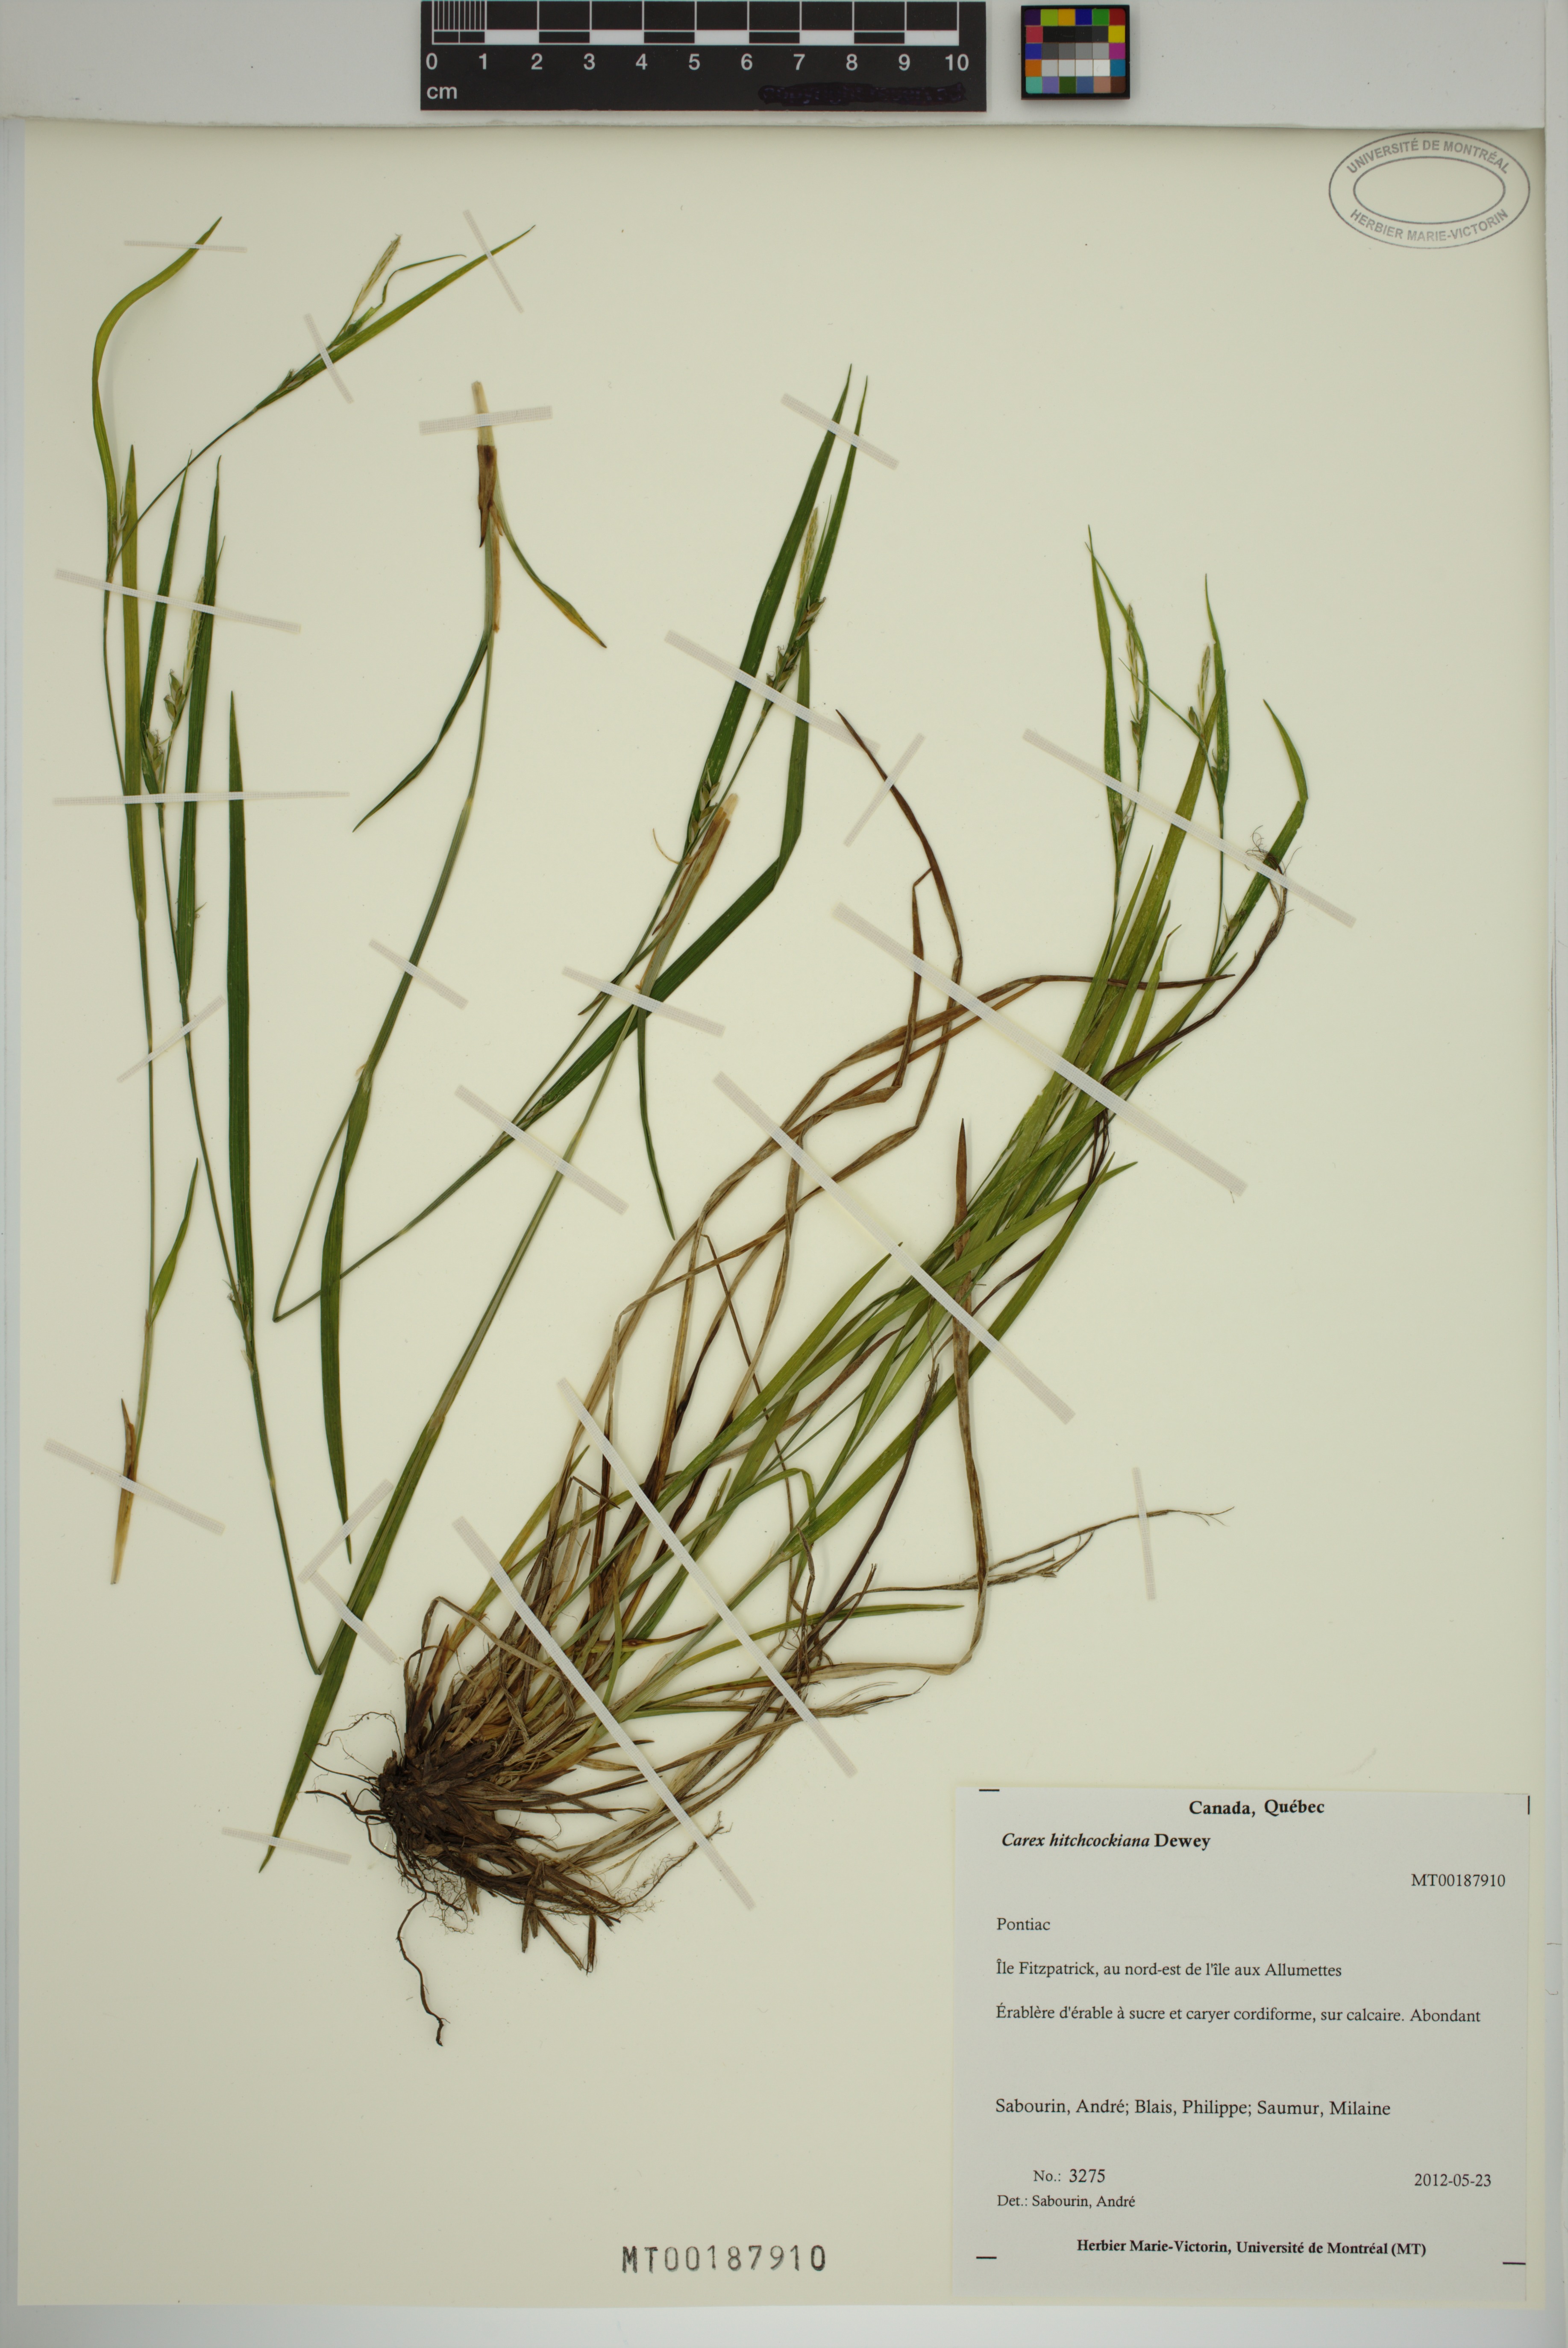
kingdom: Plantae
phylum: Tracheophyta
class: Liliopsida
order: Poales
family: Cyperaceae
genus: Carex
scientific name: Carex hitchcockiana
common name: Hairy grey sedge
